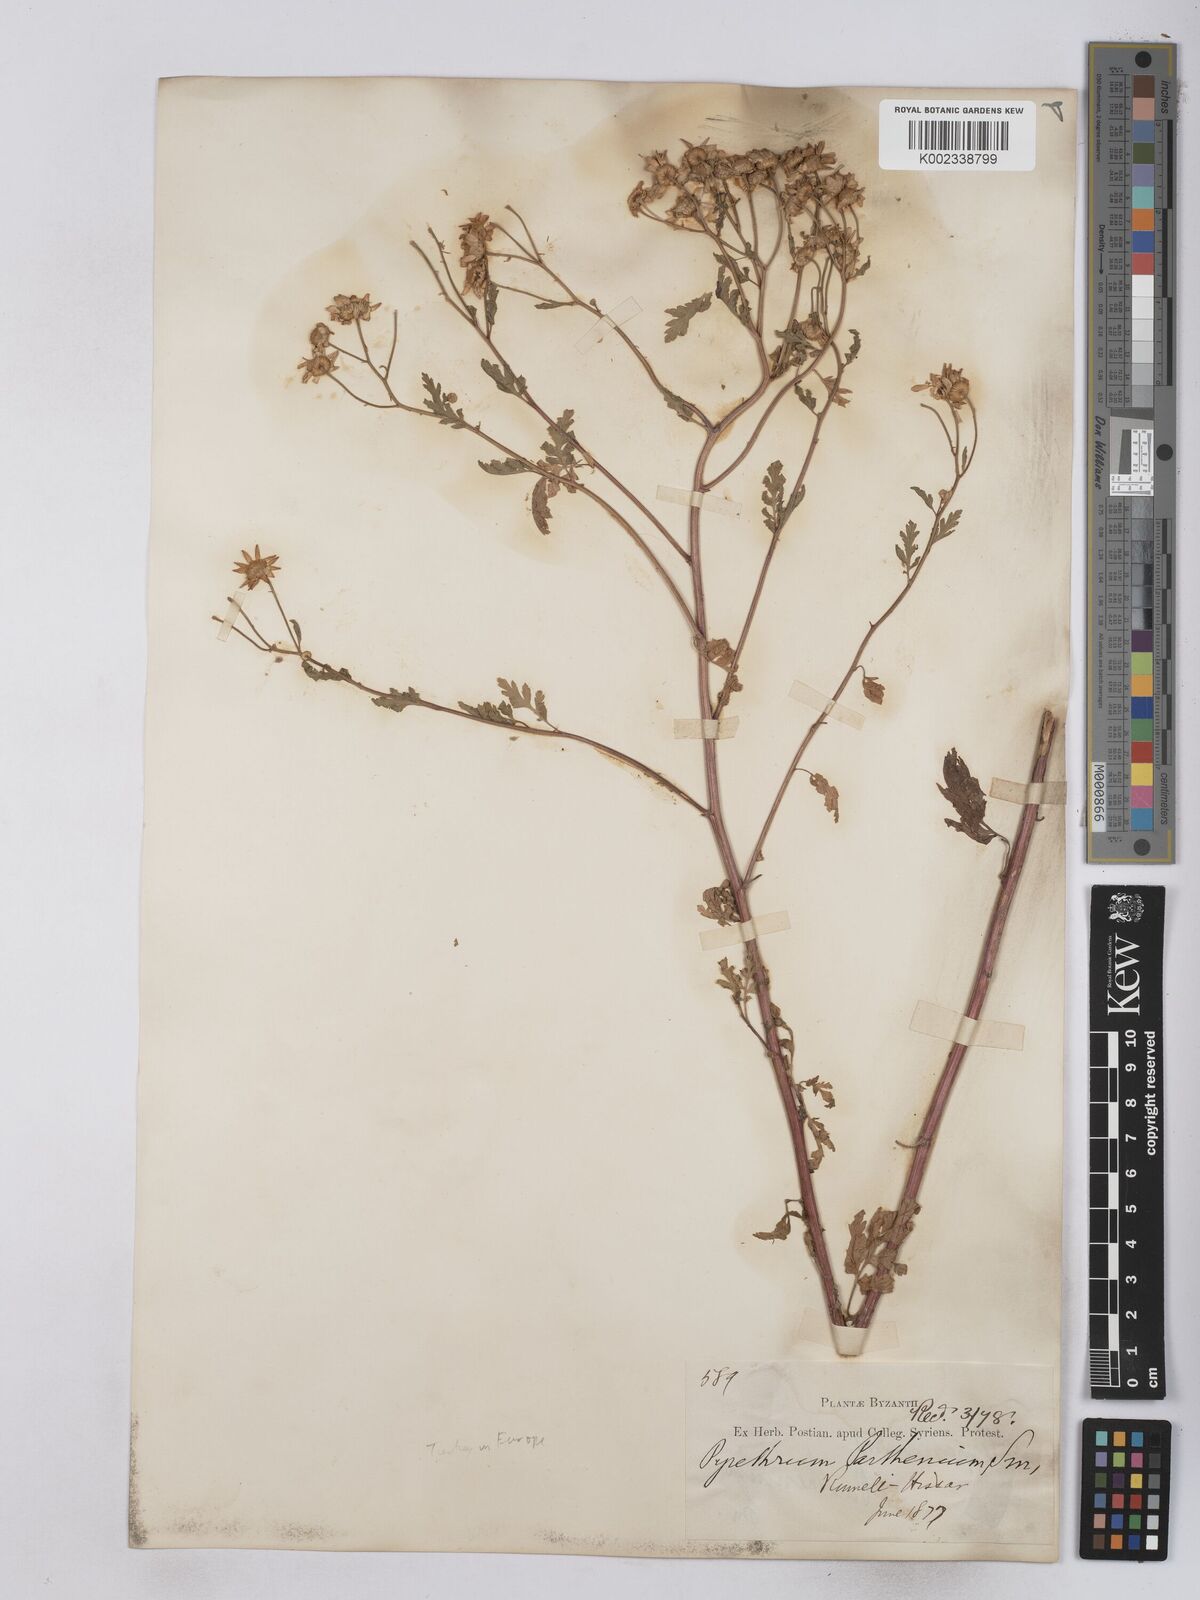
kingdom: Plantae
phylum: Tracheophyta
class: Magnoliopsida
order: Asterales
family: Asteraceae
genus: Tanacetum
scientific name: Tanacetum parthenium
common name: Feverfew
